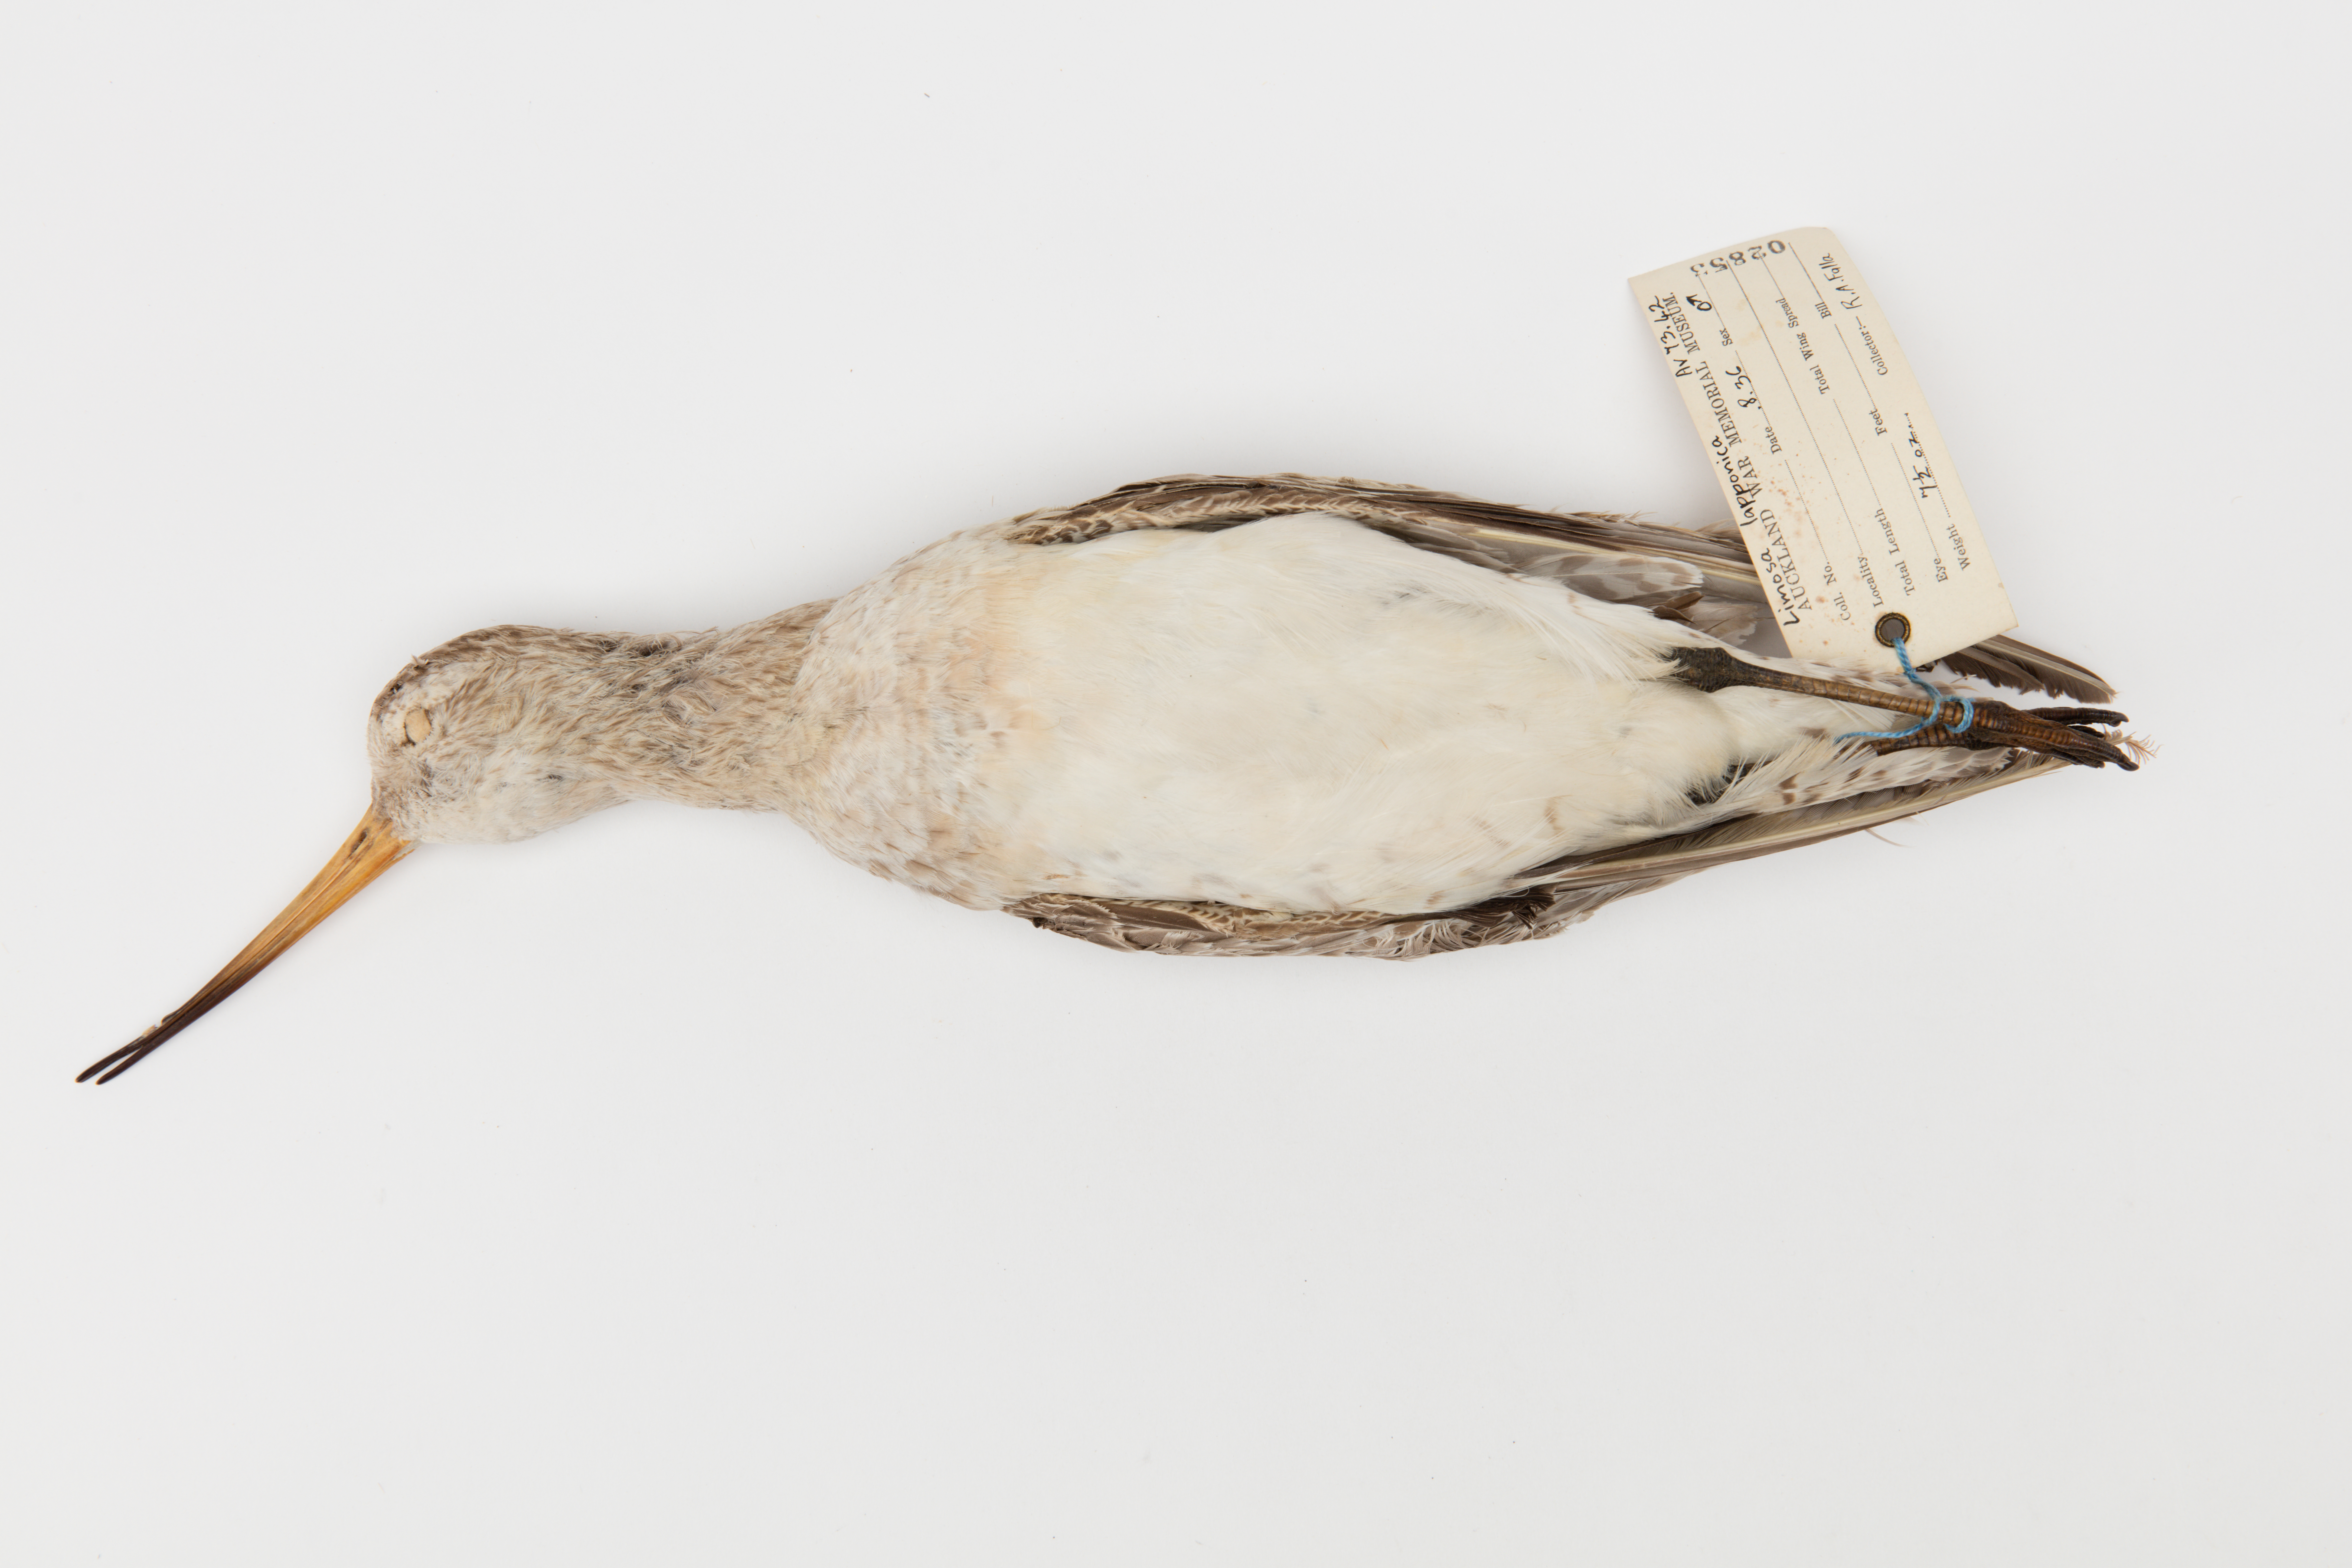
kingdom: Animalia
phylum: Chordata
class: Aves
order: Charadriiformes
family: Scolopacidae
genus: Limosa
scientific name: Limosa lapponica
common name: Bar-tailed godwit
